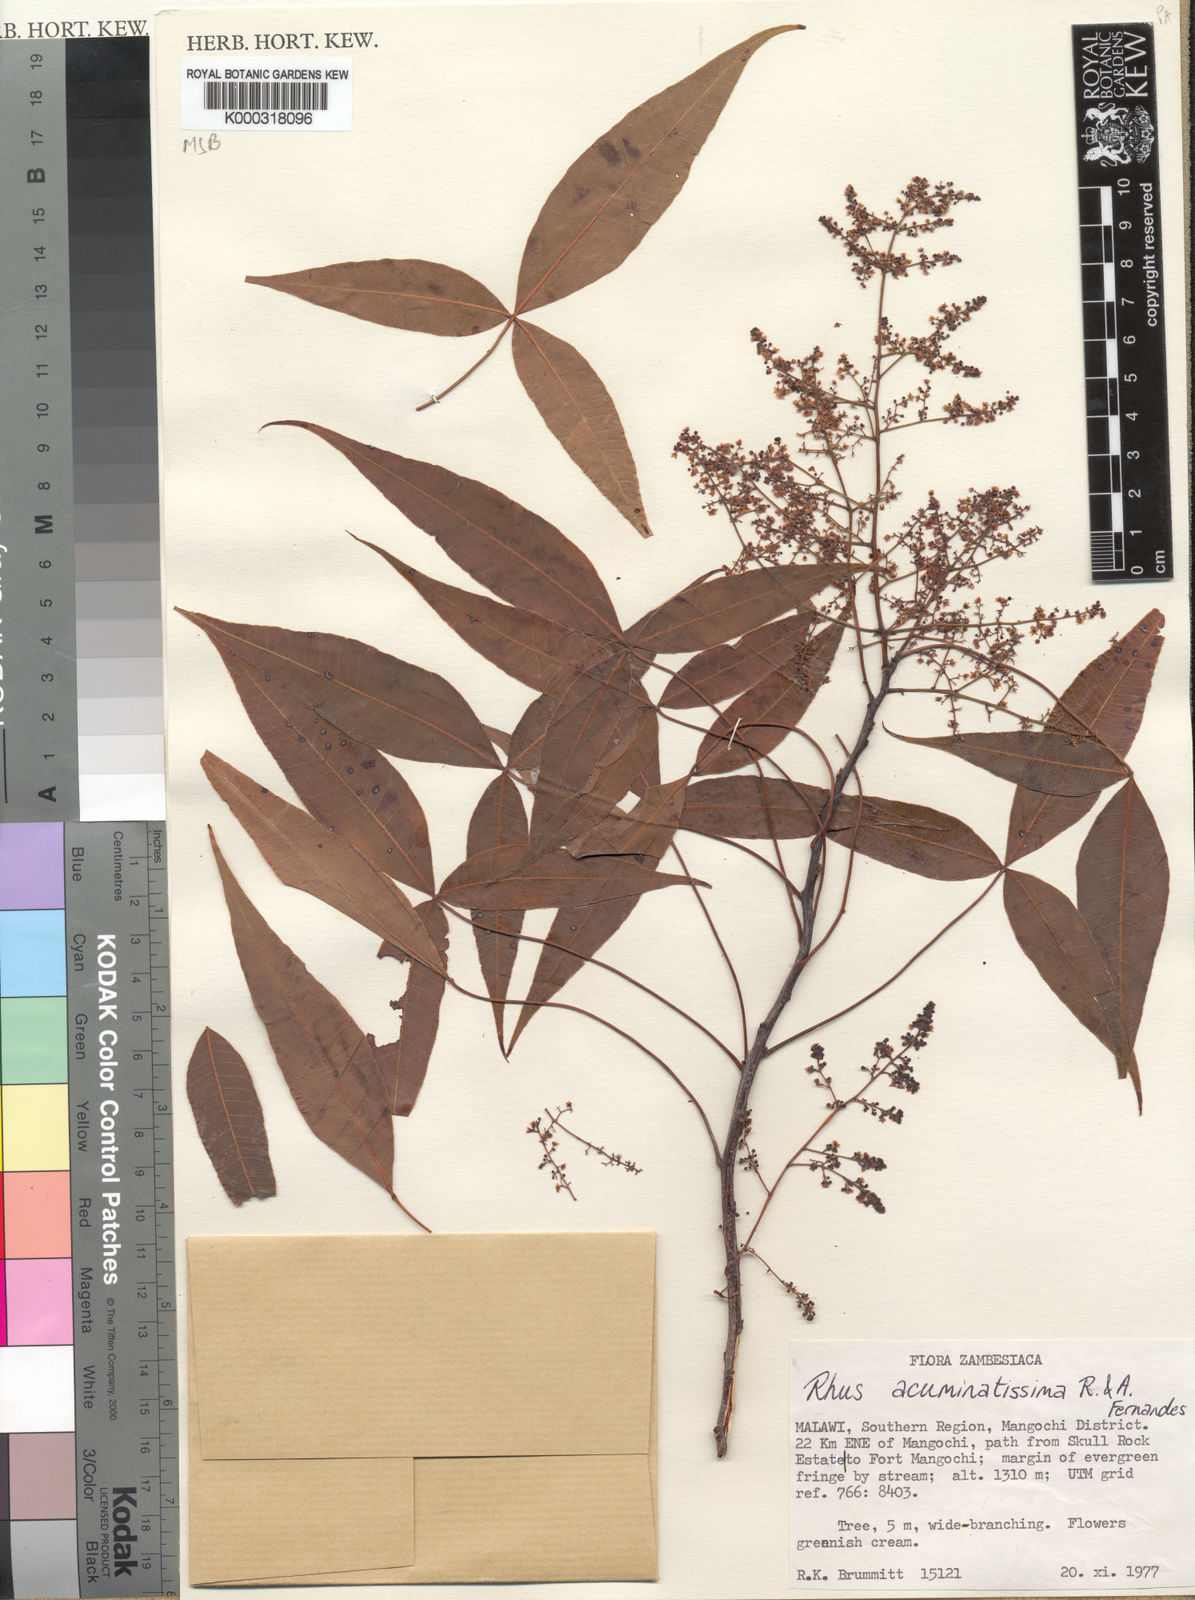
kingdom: Plantae
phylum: Tracheophyta
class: Magnoliopsida
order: Sapindales
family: Anacardiaceae
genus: Searsia
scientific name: Searsia acuminatissima
